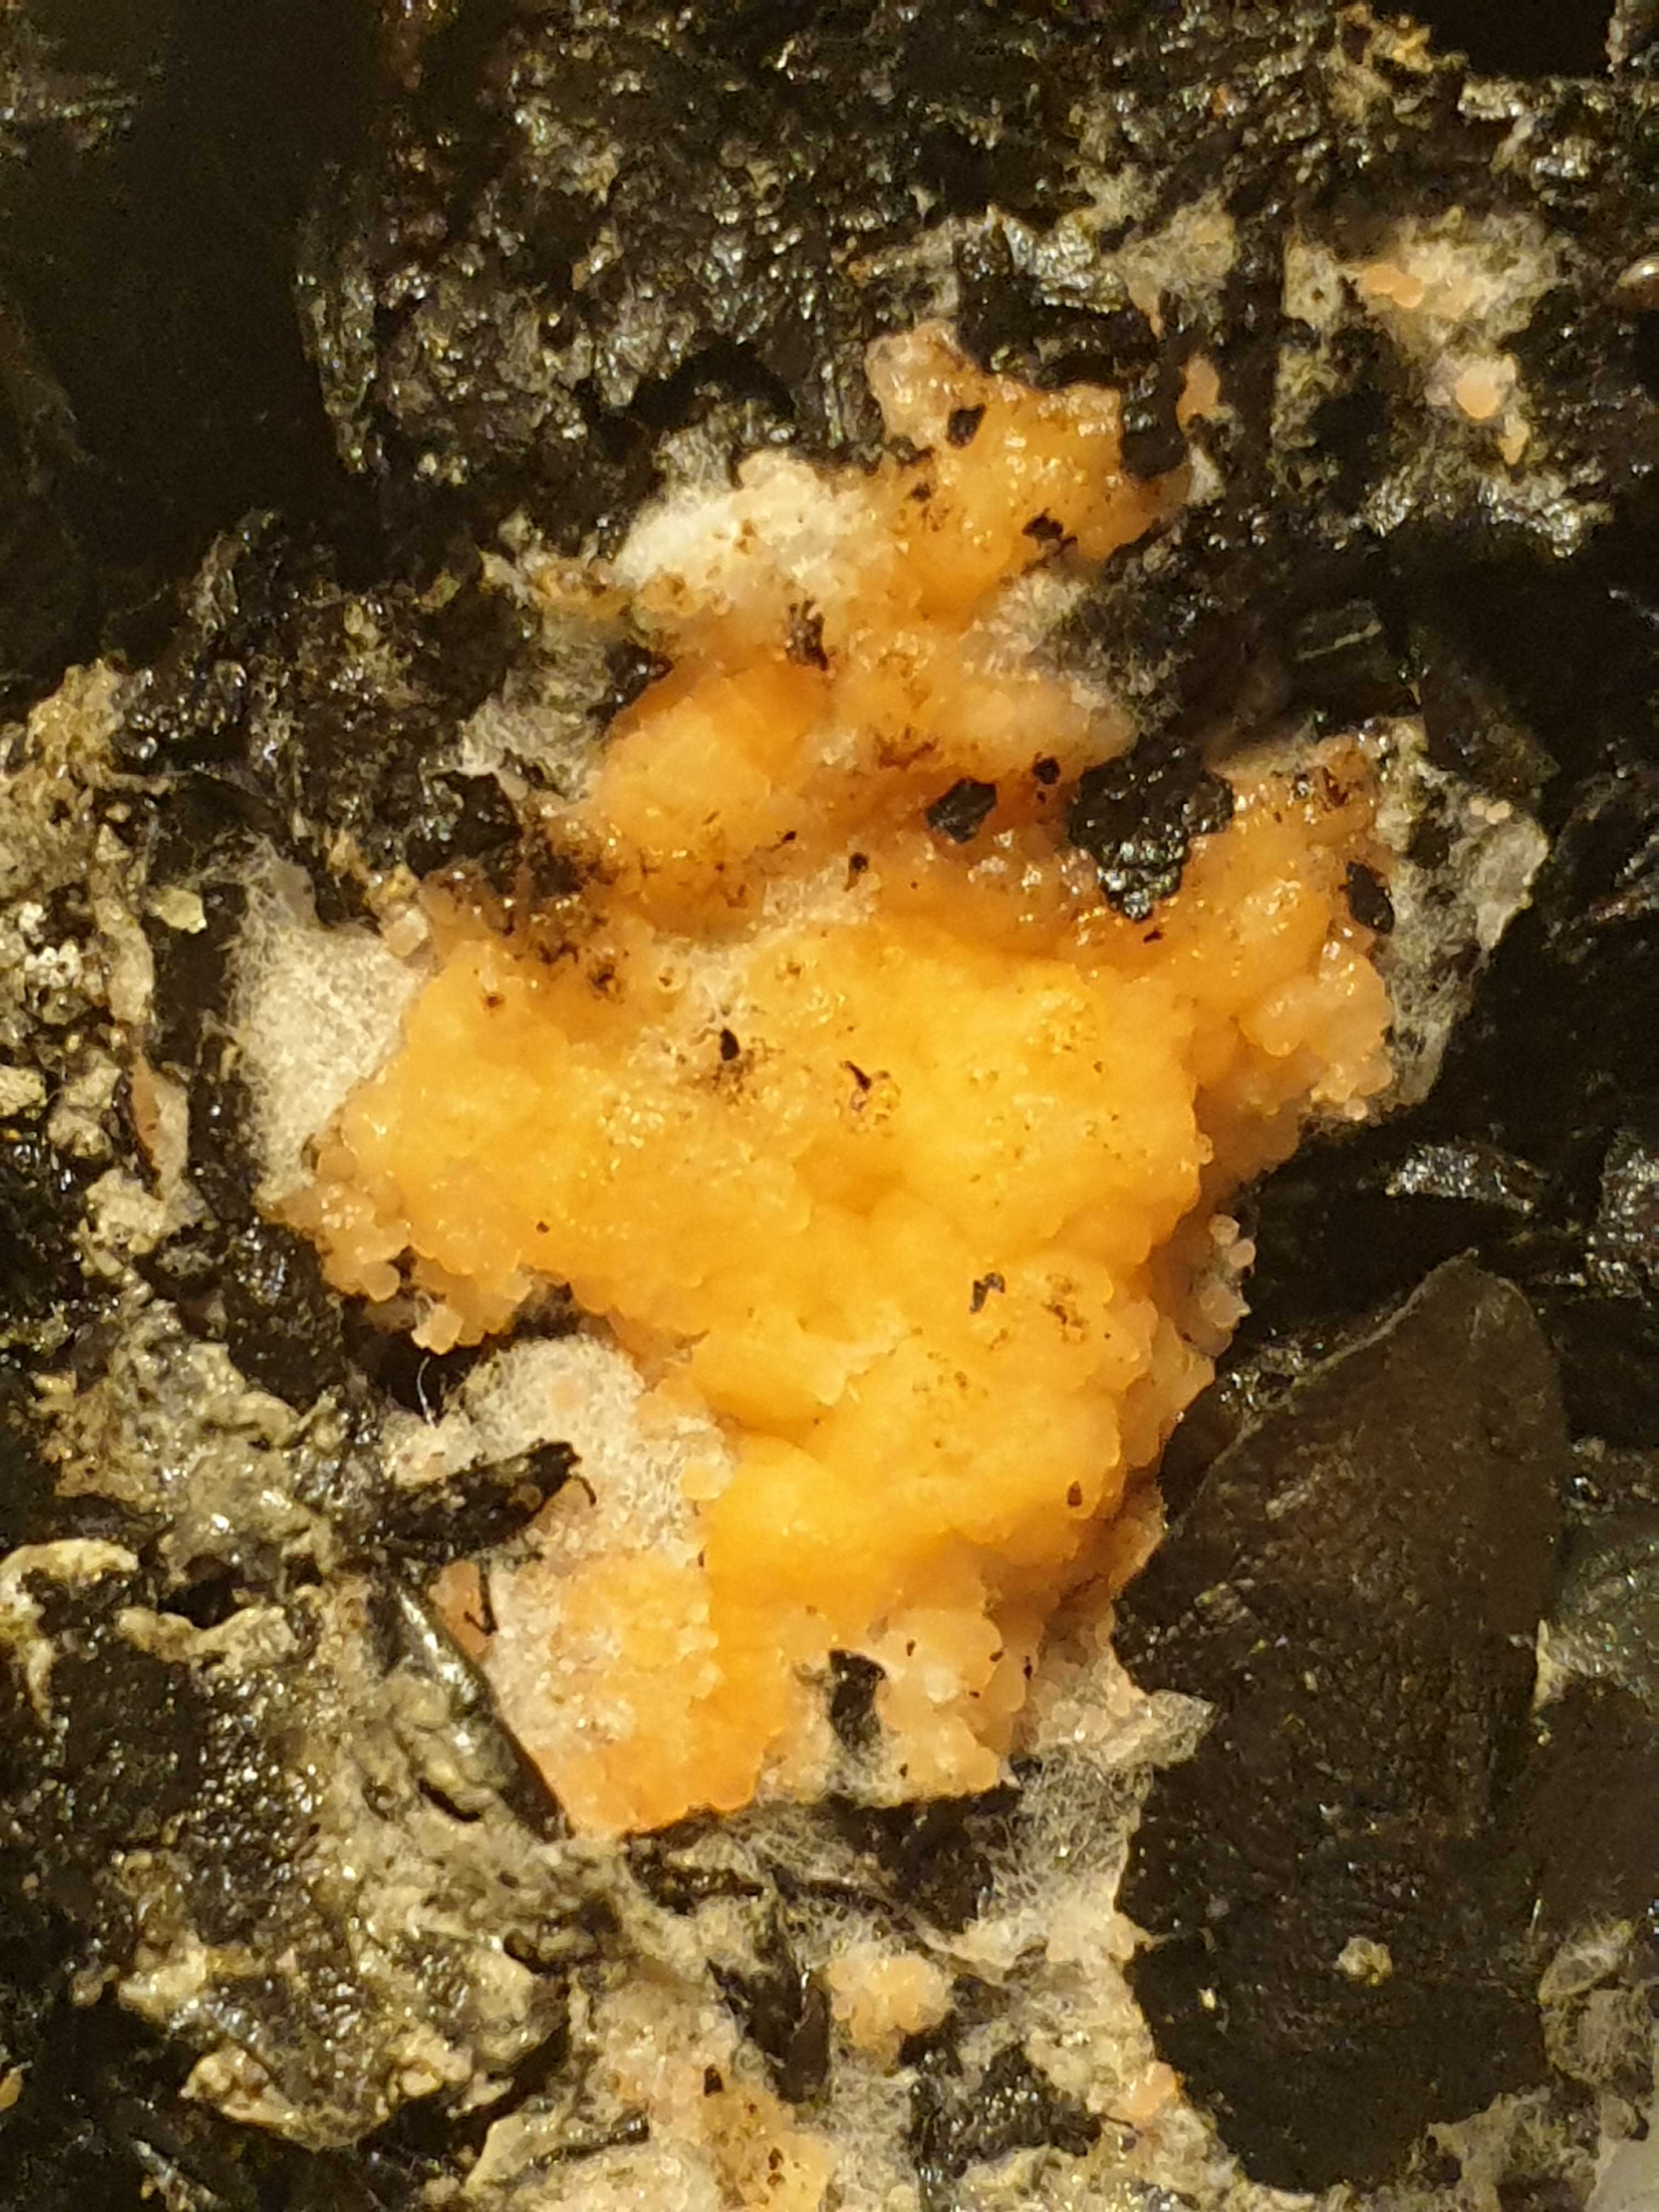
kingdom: Fungi
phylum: Ascomycota
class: Pezizomycetes
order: Pezizales
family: Pyronemataceae
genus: Pyronema
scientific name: Pyronema
